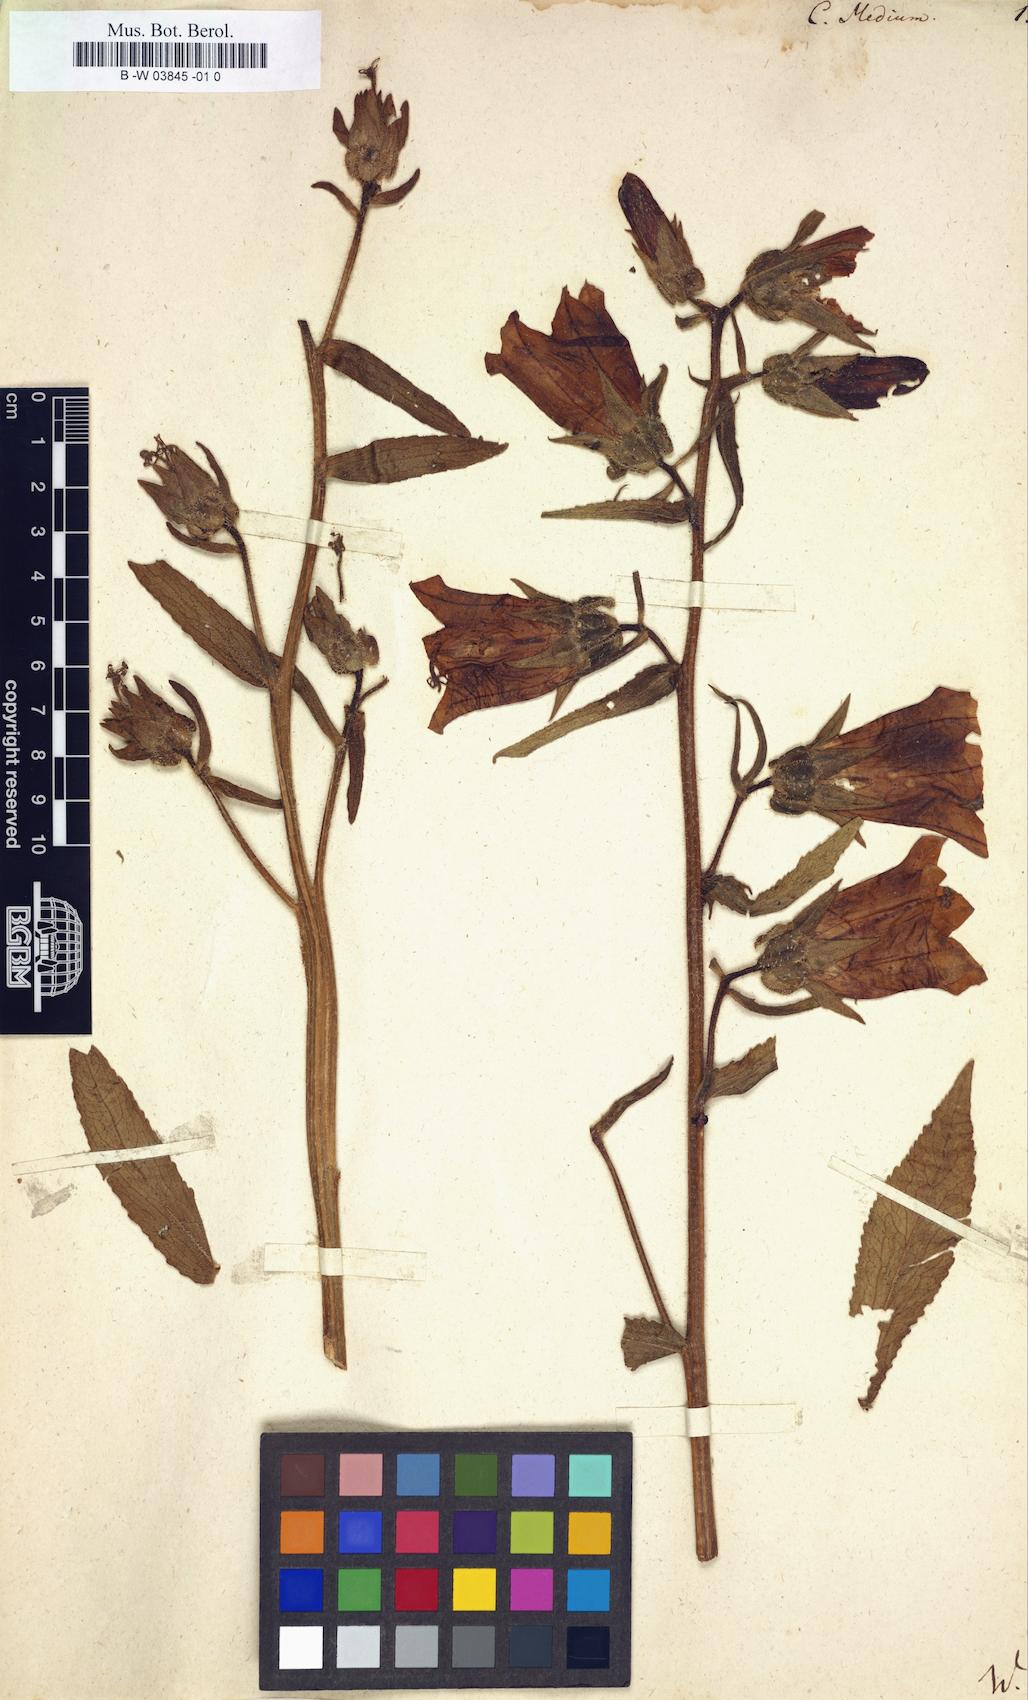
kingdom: Plantae
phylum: Tracheophyta
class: Magnoliopsida
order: Asterales
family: Campanulaceae
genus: Campanula
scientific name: Campanula medium
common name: Canterbury bells
